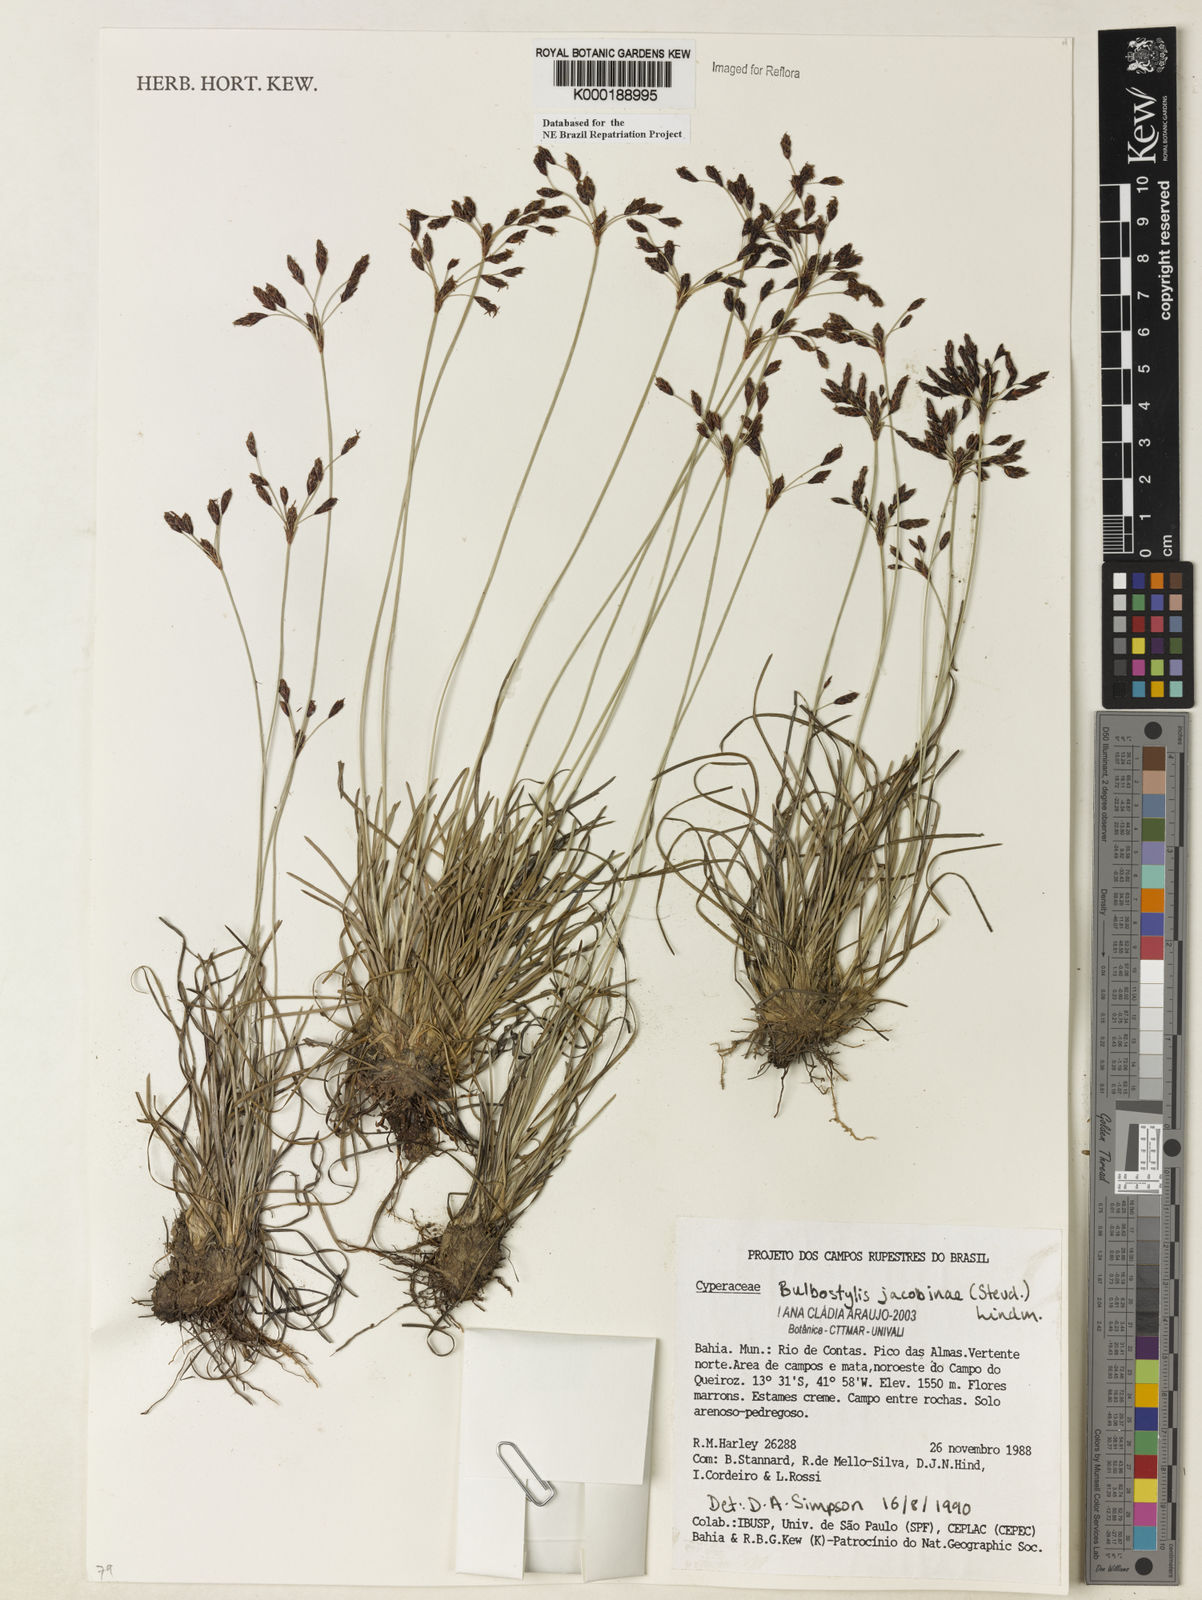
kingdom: Plantae
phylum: Tracheophyta
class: Liliopsida
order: Poales
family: Cyperaceae
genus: Bulbostylis
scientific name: Bulbostylis jacobinae
